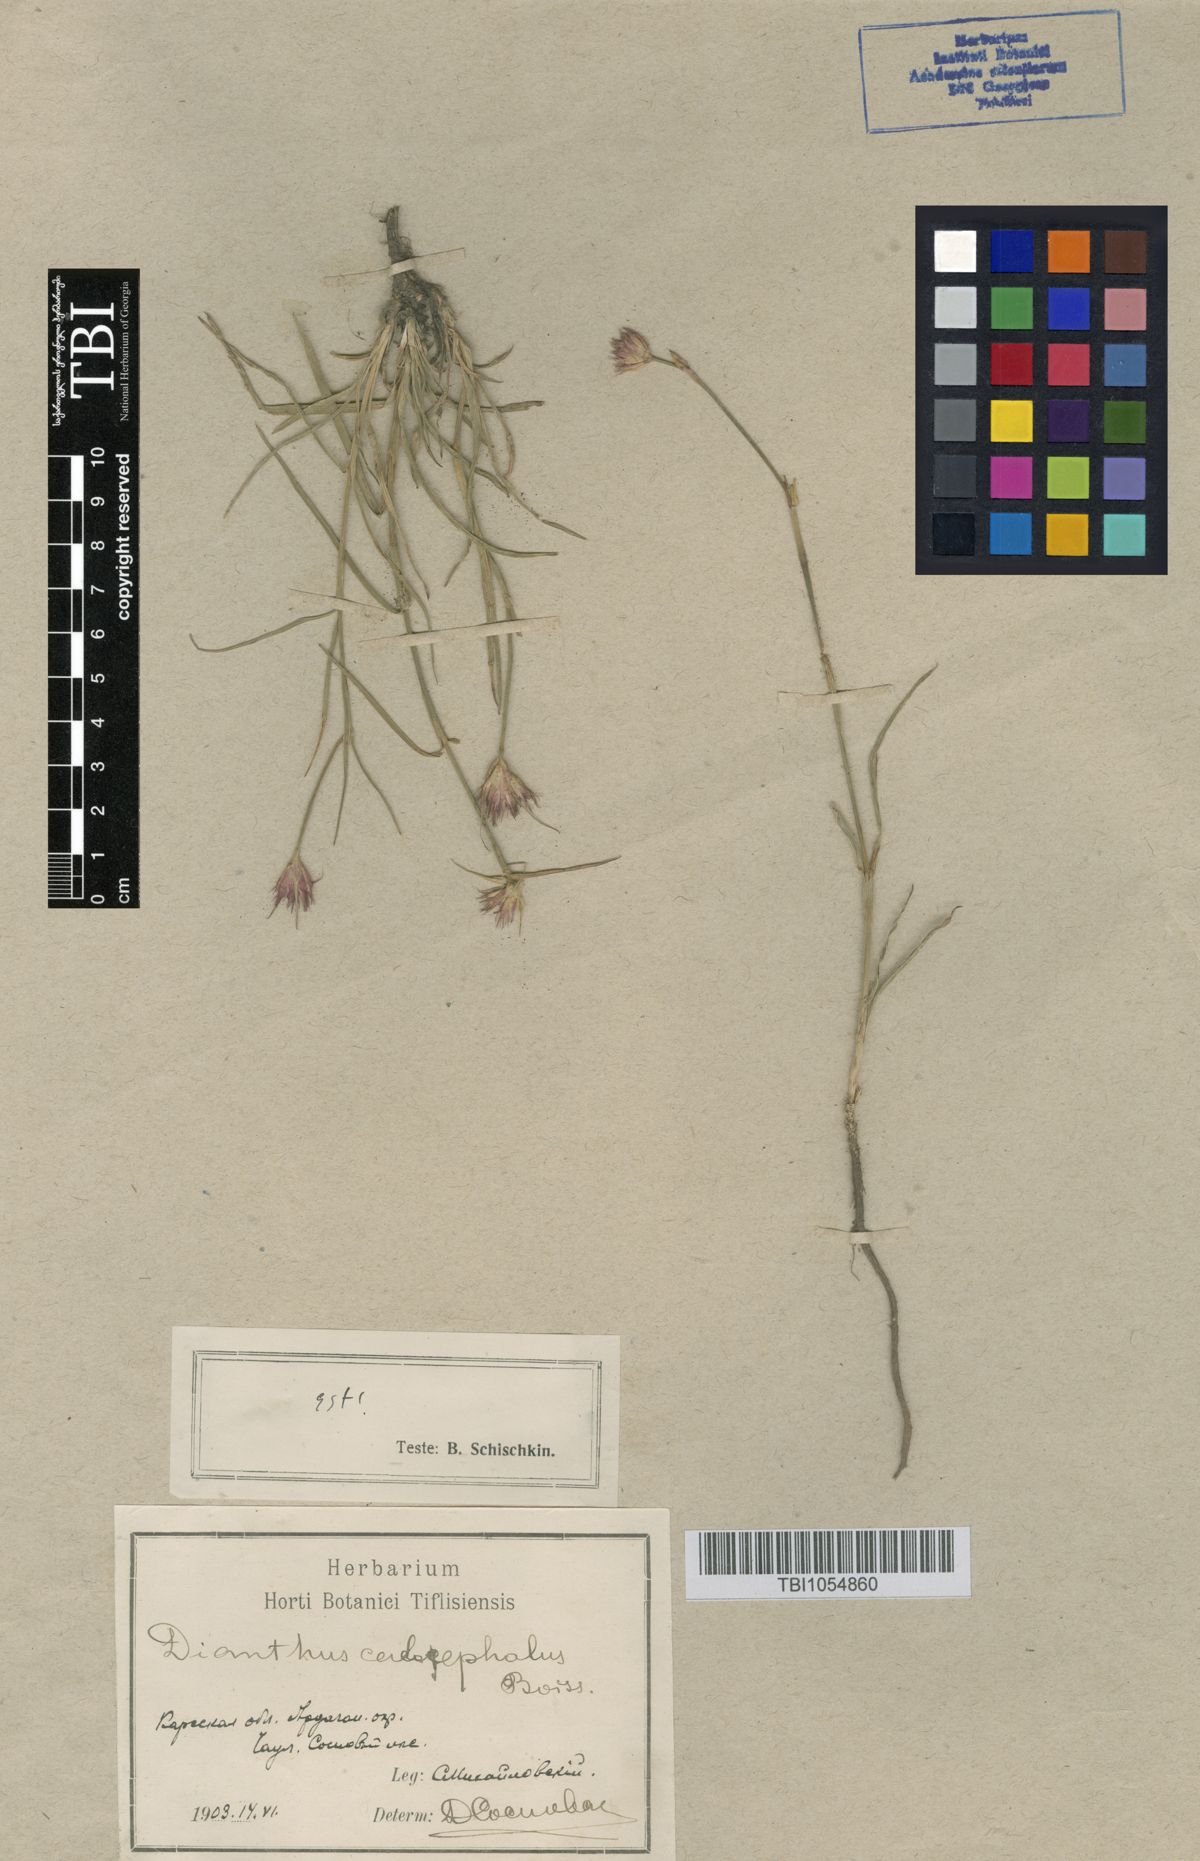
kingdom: Plantae
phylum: Tracheophyta
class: Magnoliopsida
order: Caryophyllales
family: Caryophyllaceae
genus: Dianthus
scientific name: Dianthus cruentus
